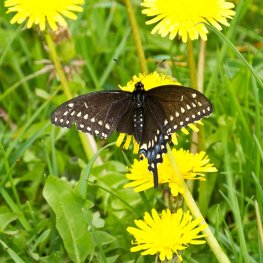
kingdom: Animalia
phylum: Arthropoda
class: Insecta
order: Lepidoptera
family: Papilionidae
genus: Papilio
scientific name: Papilio polyxenes
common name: Black Swallowtail
